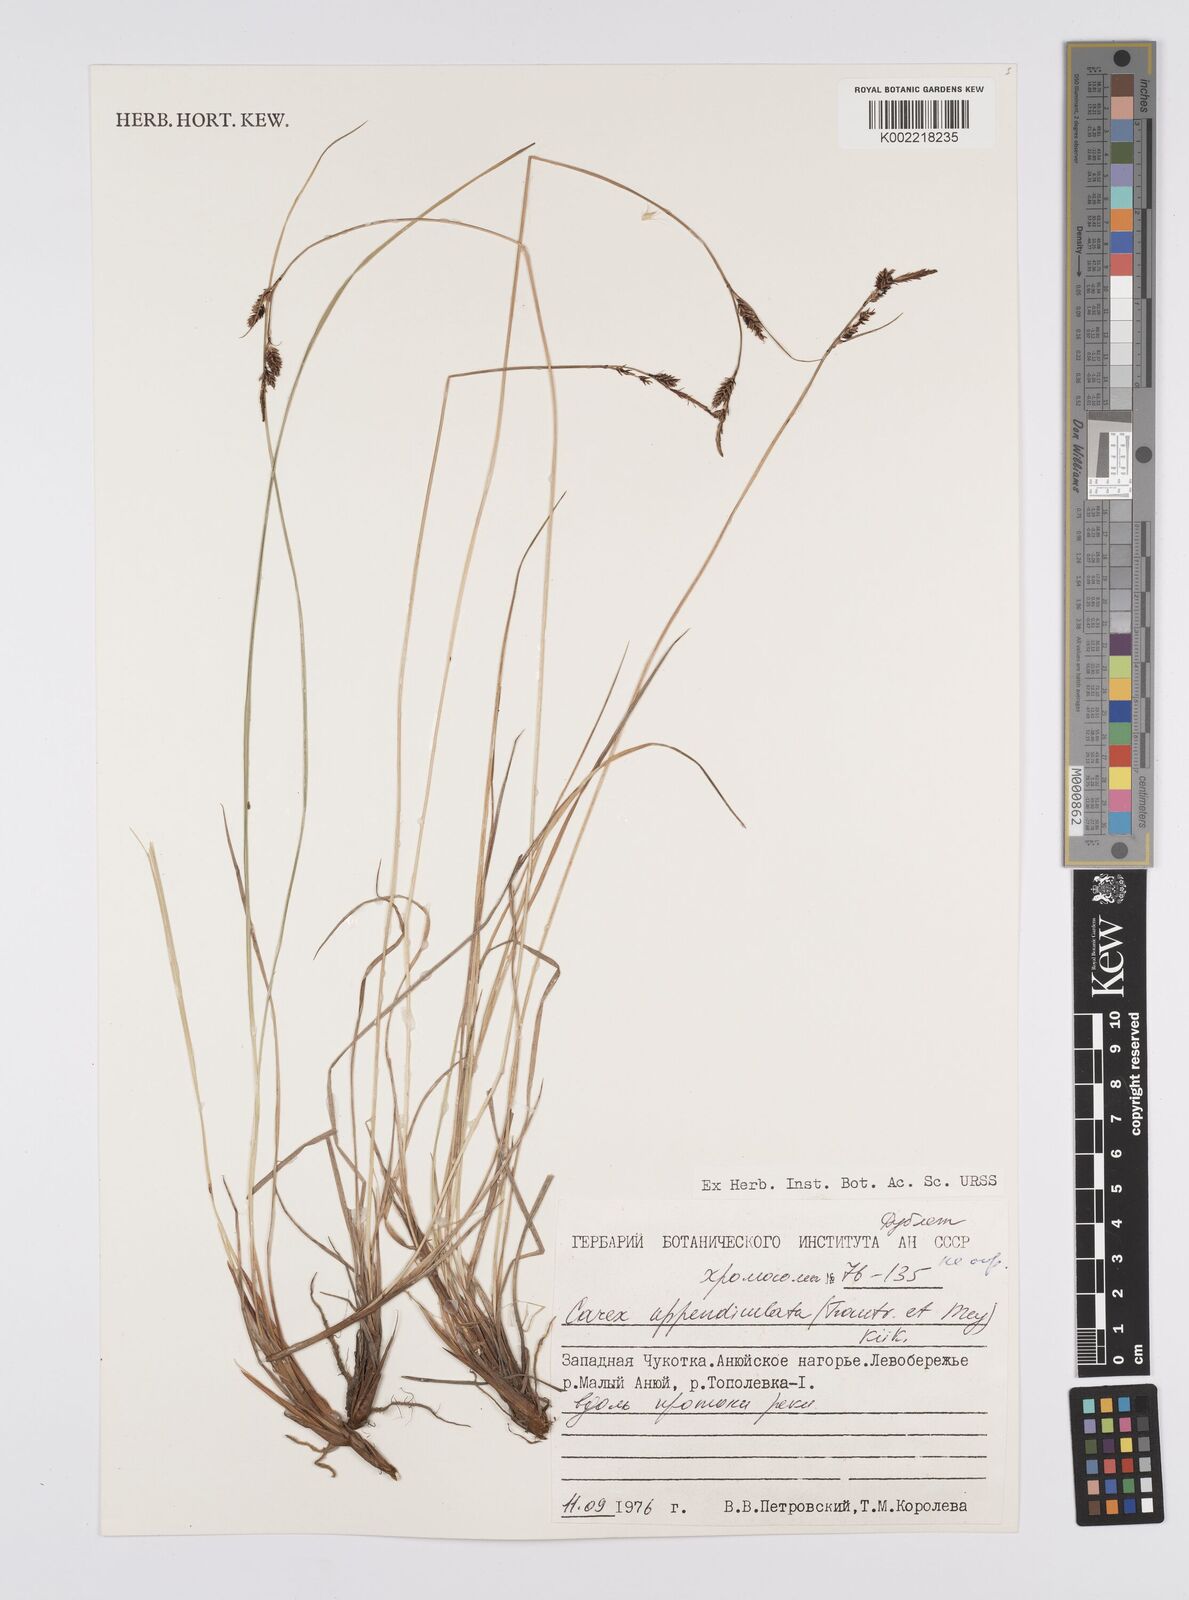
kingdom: Plantae
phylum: Tracheophyta
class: Liliopsida
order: Poales
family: Cyperaceae
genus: Carex
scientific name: Carex appendiculata
